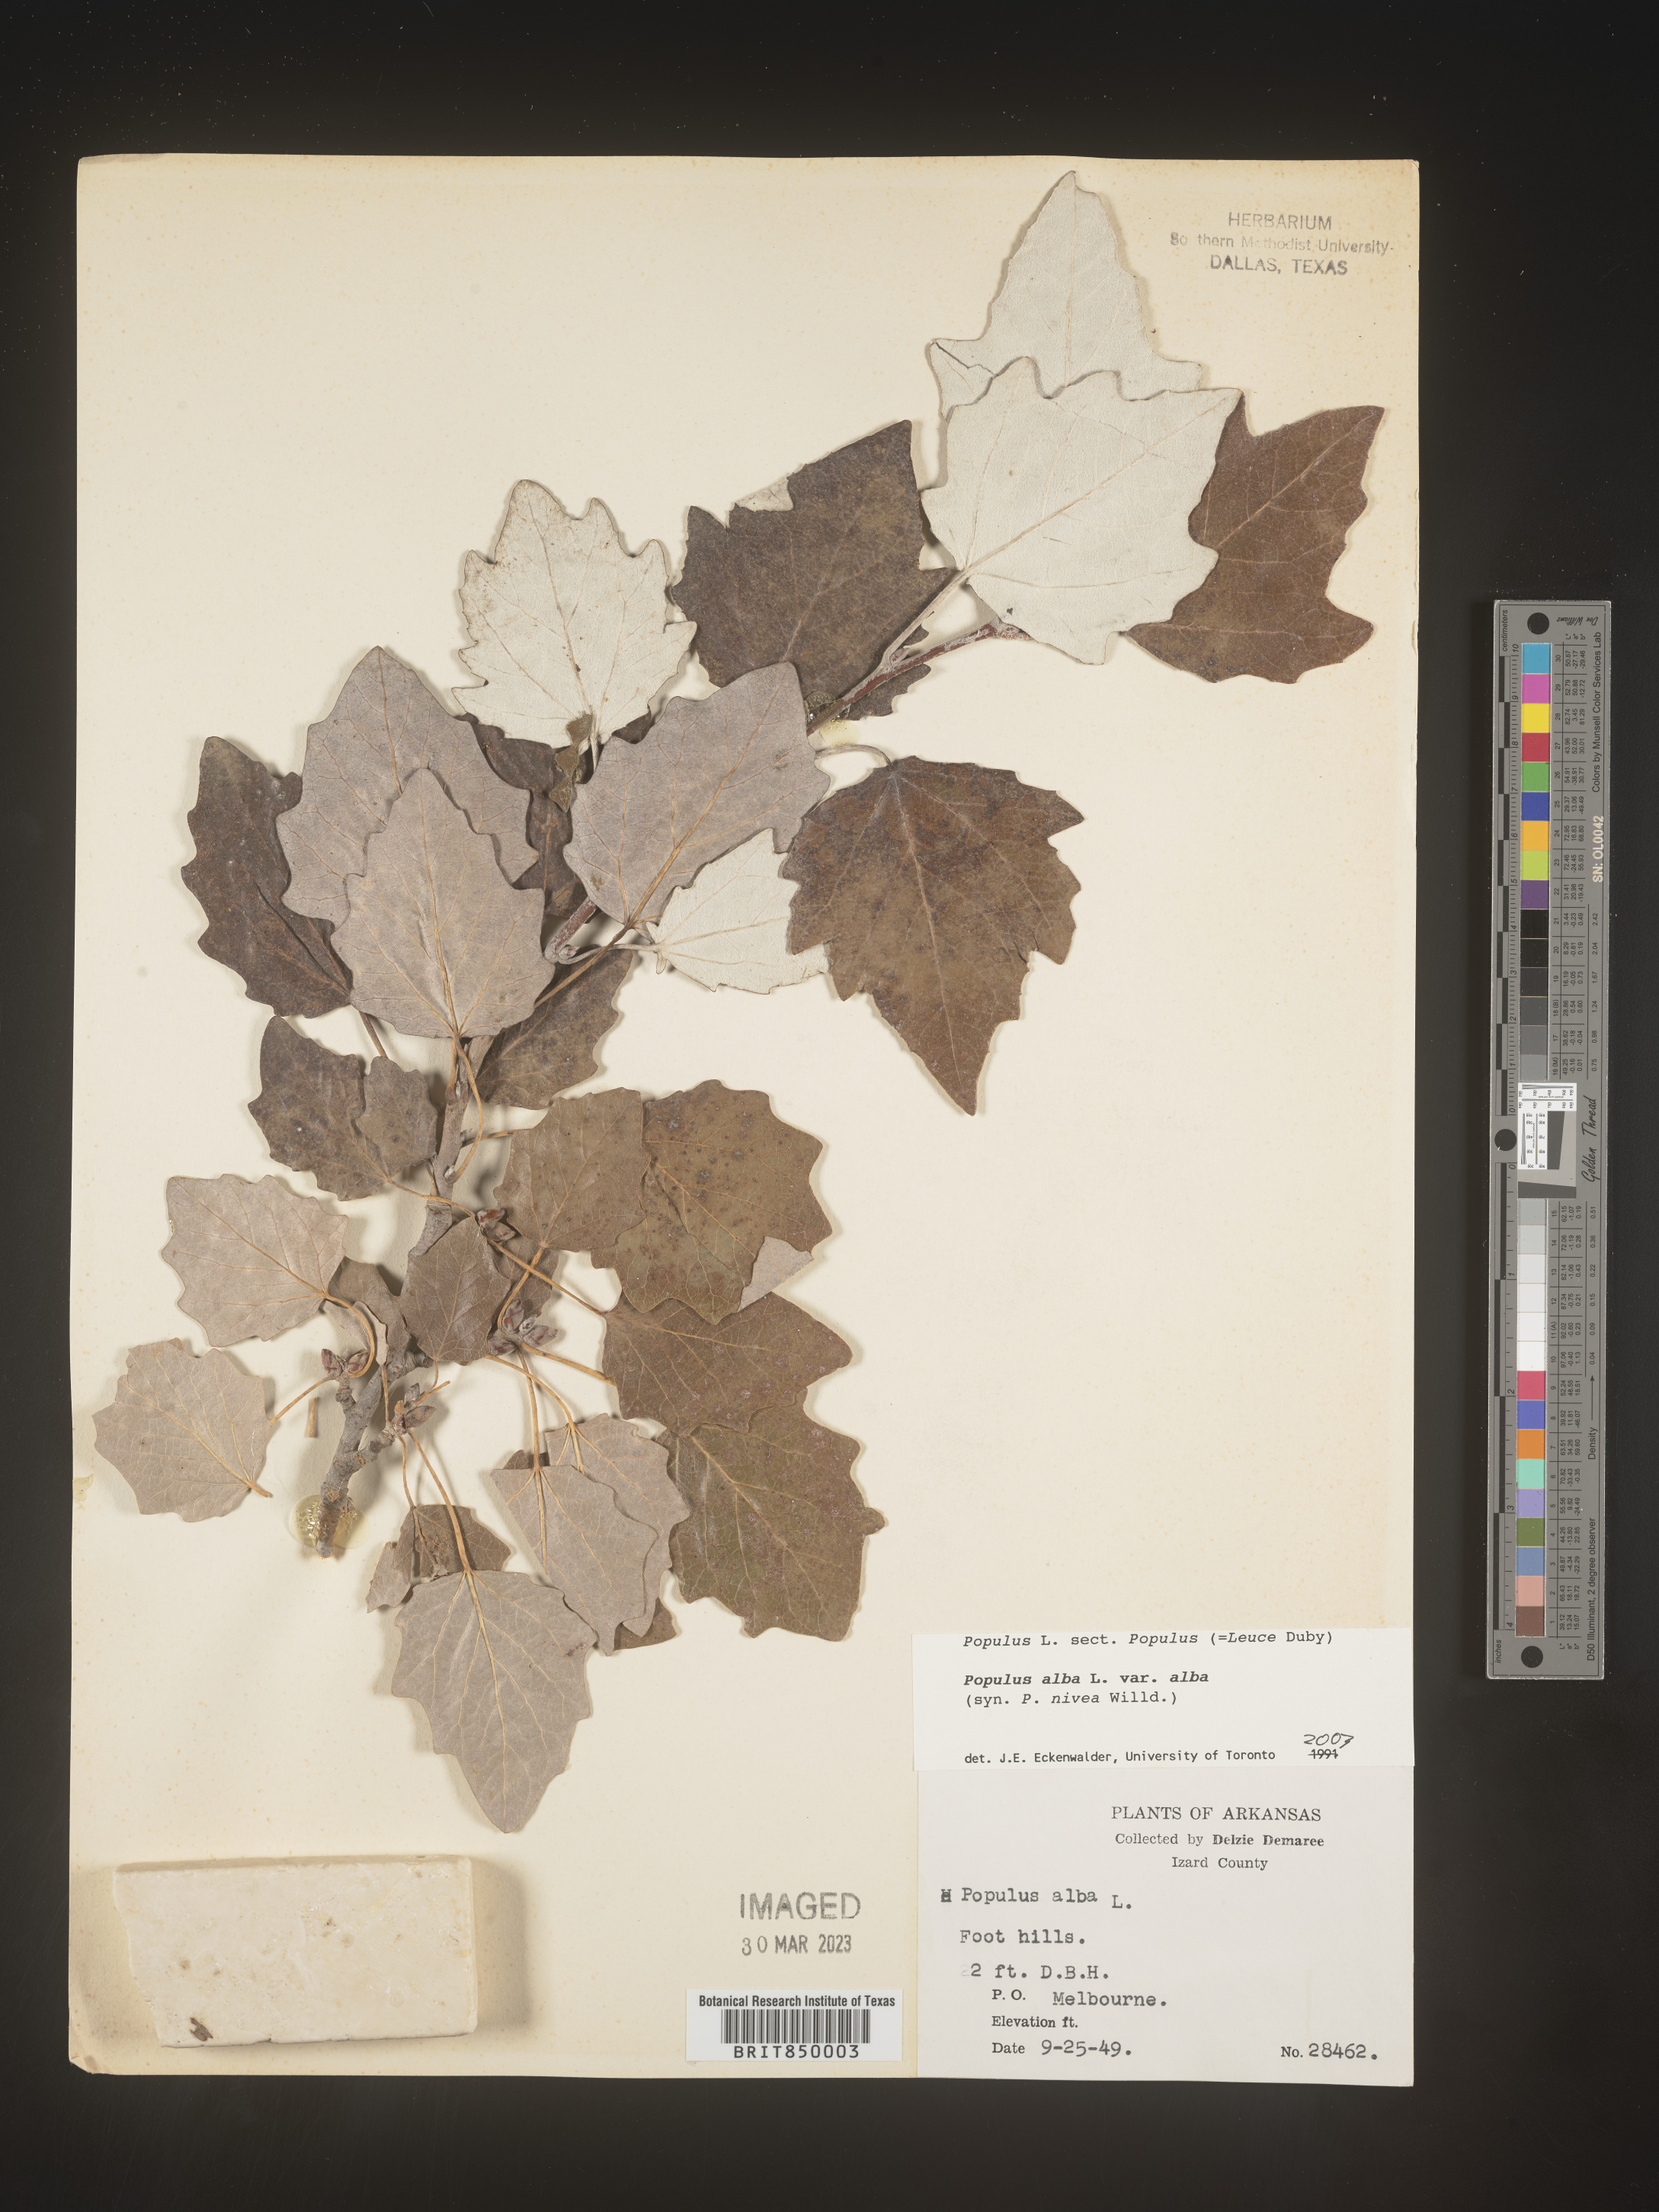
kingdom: Plantae
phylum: Tracheophyta
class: Magnoliopsida
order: Malpighiales
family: Salicaceae
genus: Populus
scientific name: Populus alba
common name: White poplar
